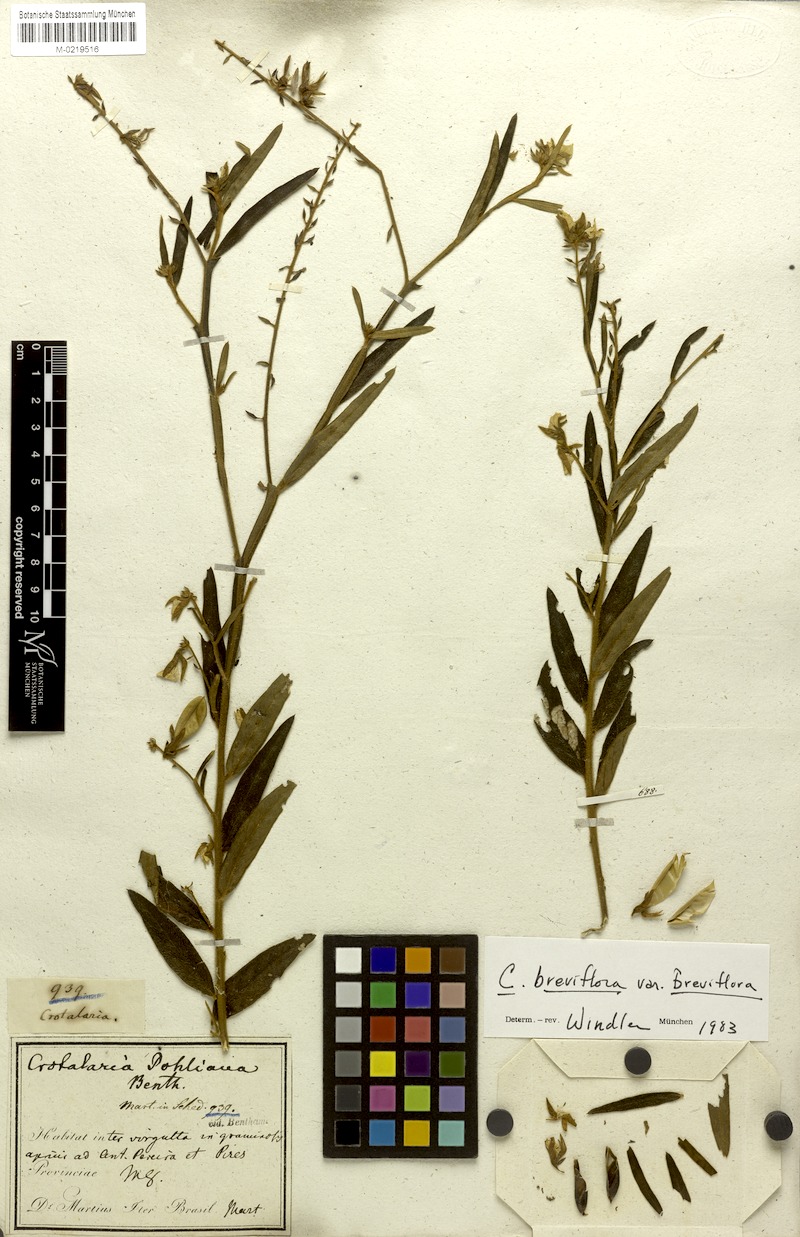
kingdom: Plantae
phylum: Tracheophyta
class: Magnoliopsida
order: Fabales
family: Fabaceae
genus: Crotalaria
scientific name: Crotalaria breviflora
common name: Short-flower crotalaria
